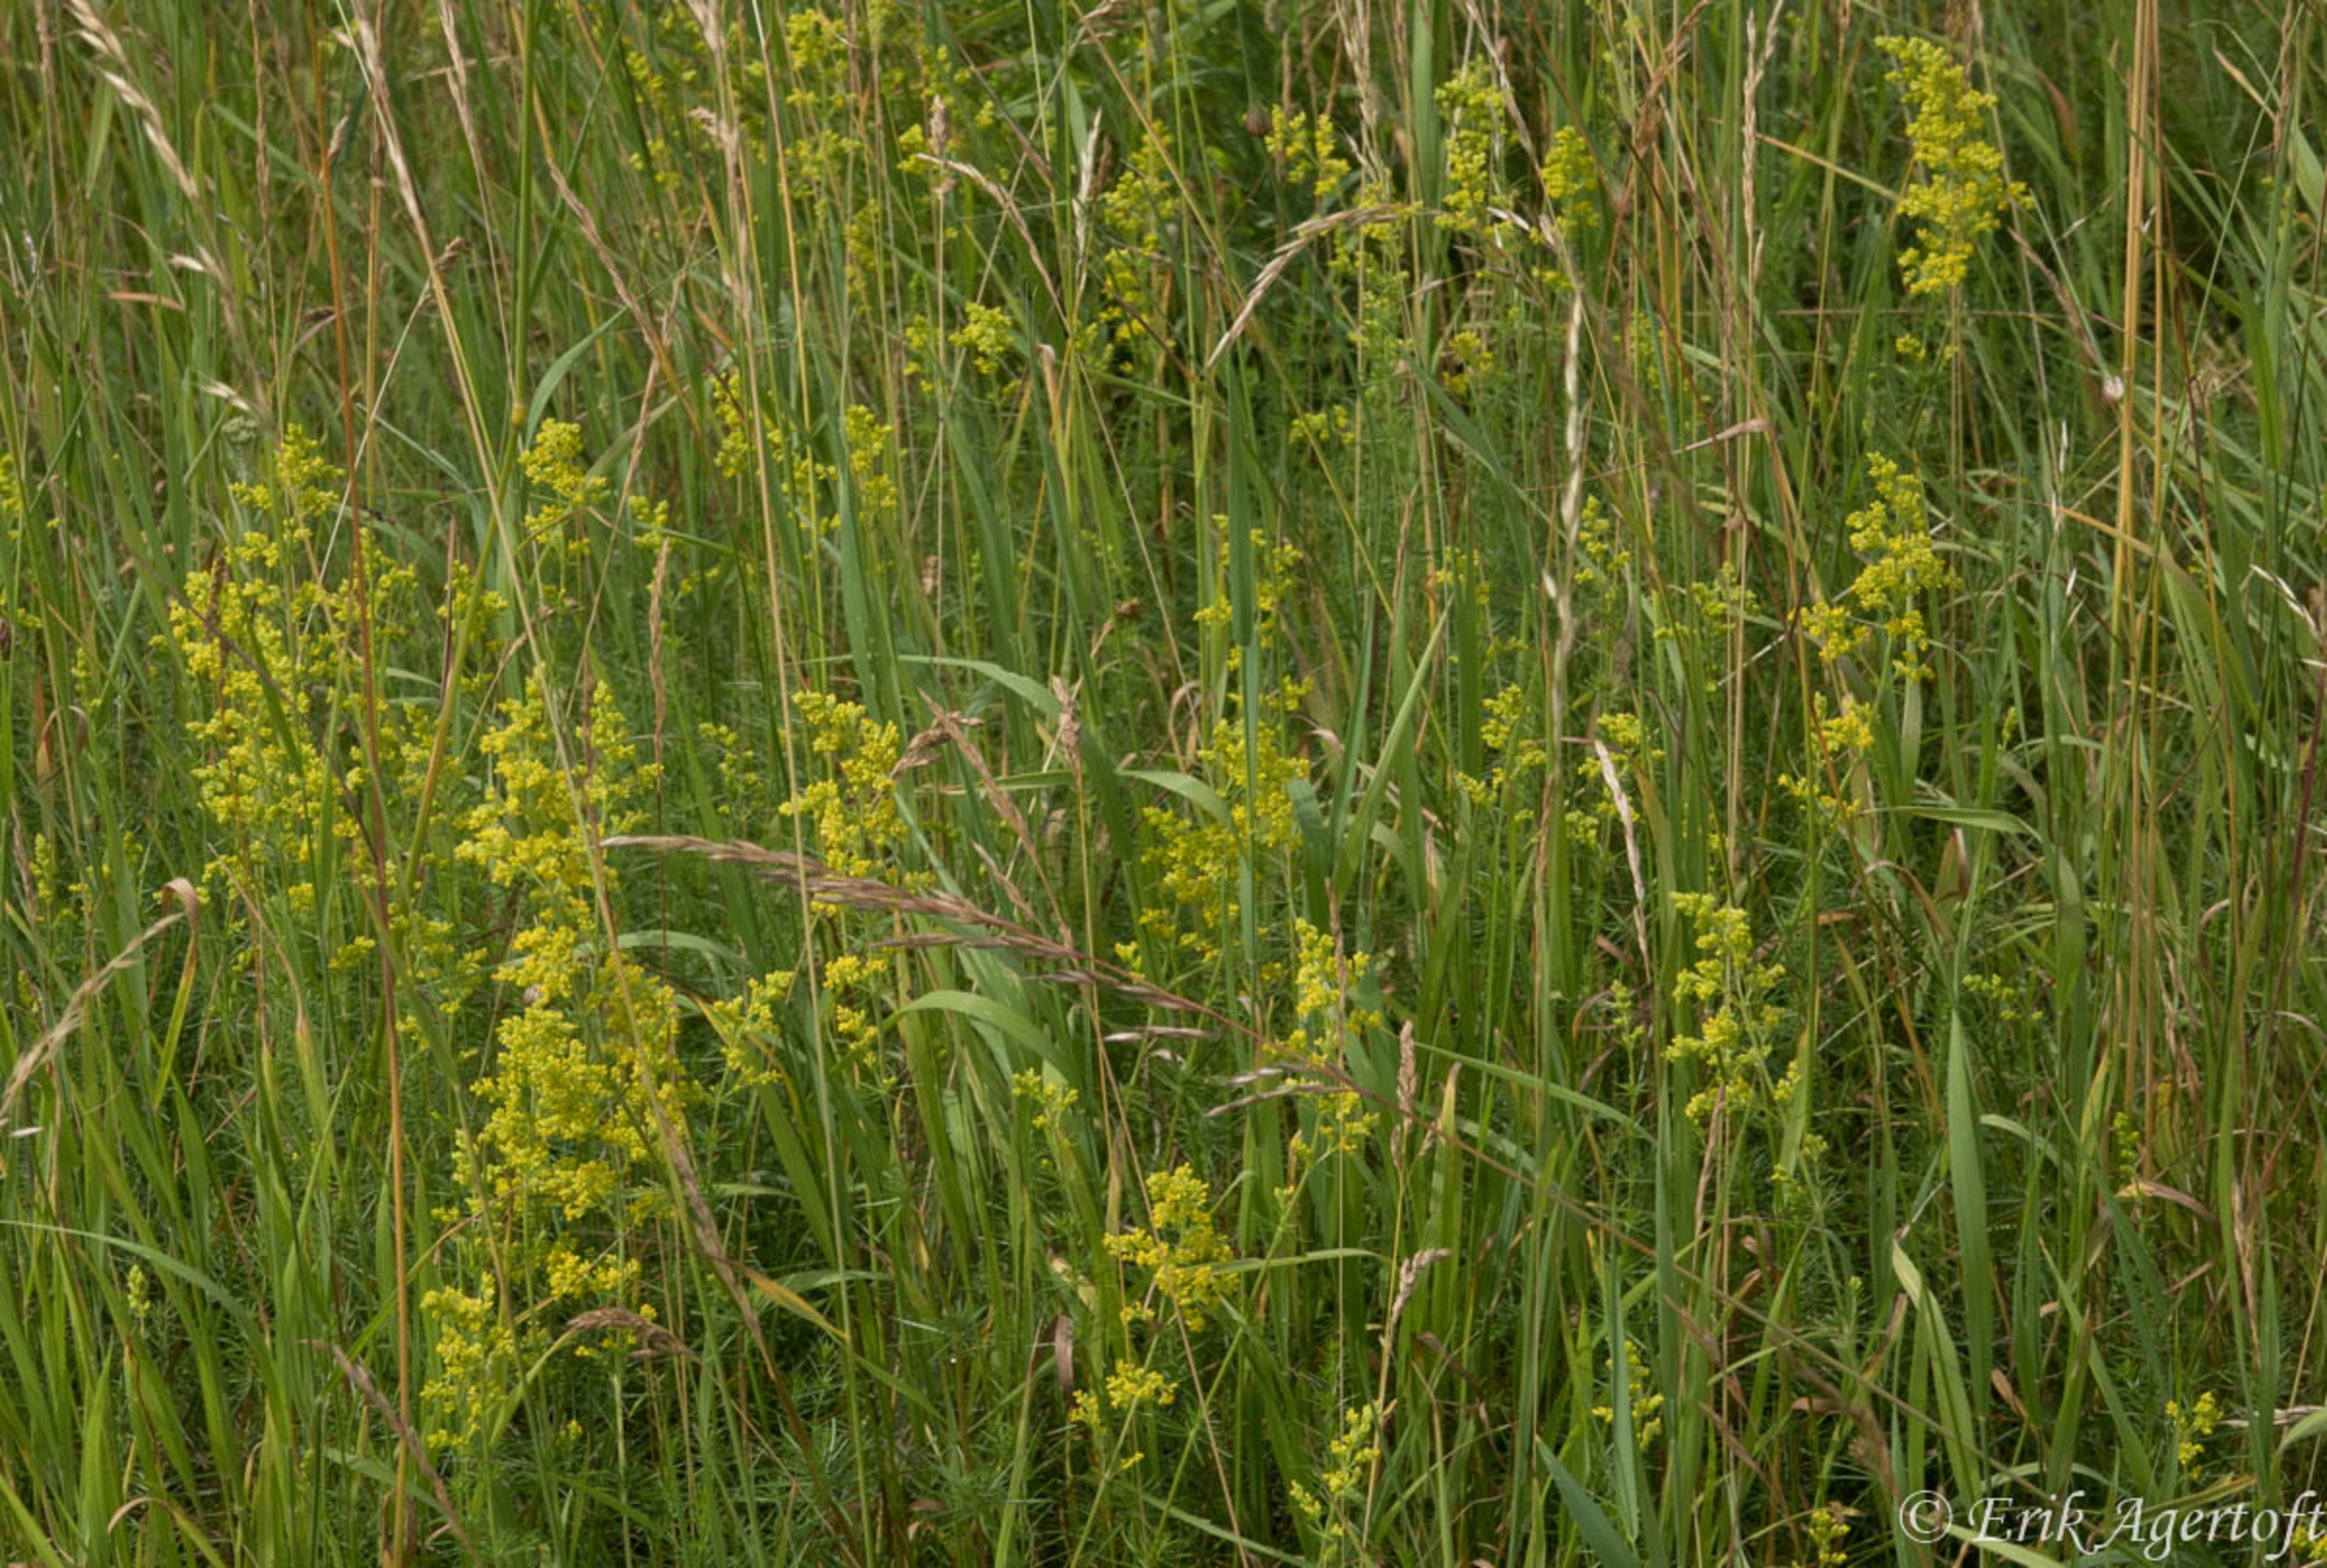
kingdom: Plantae
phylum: Tracheophyta
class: Magnoliopsida
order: Gentianales
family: Rubiaceae
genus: Galium
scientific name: Galium verum
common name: Gul snerre
